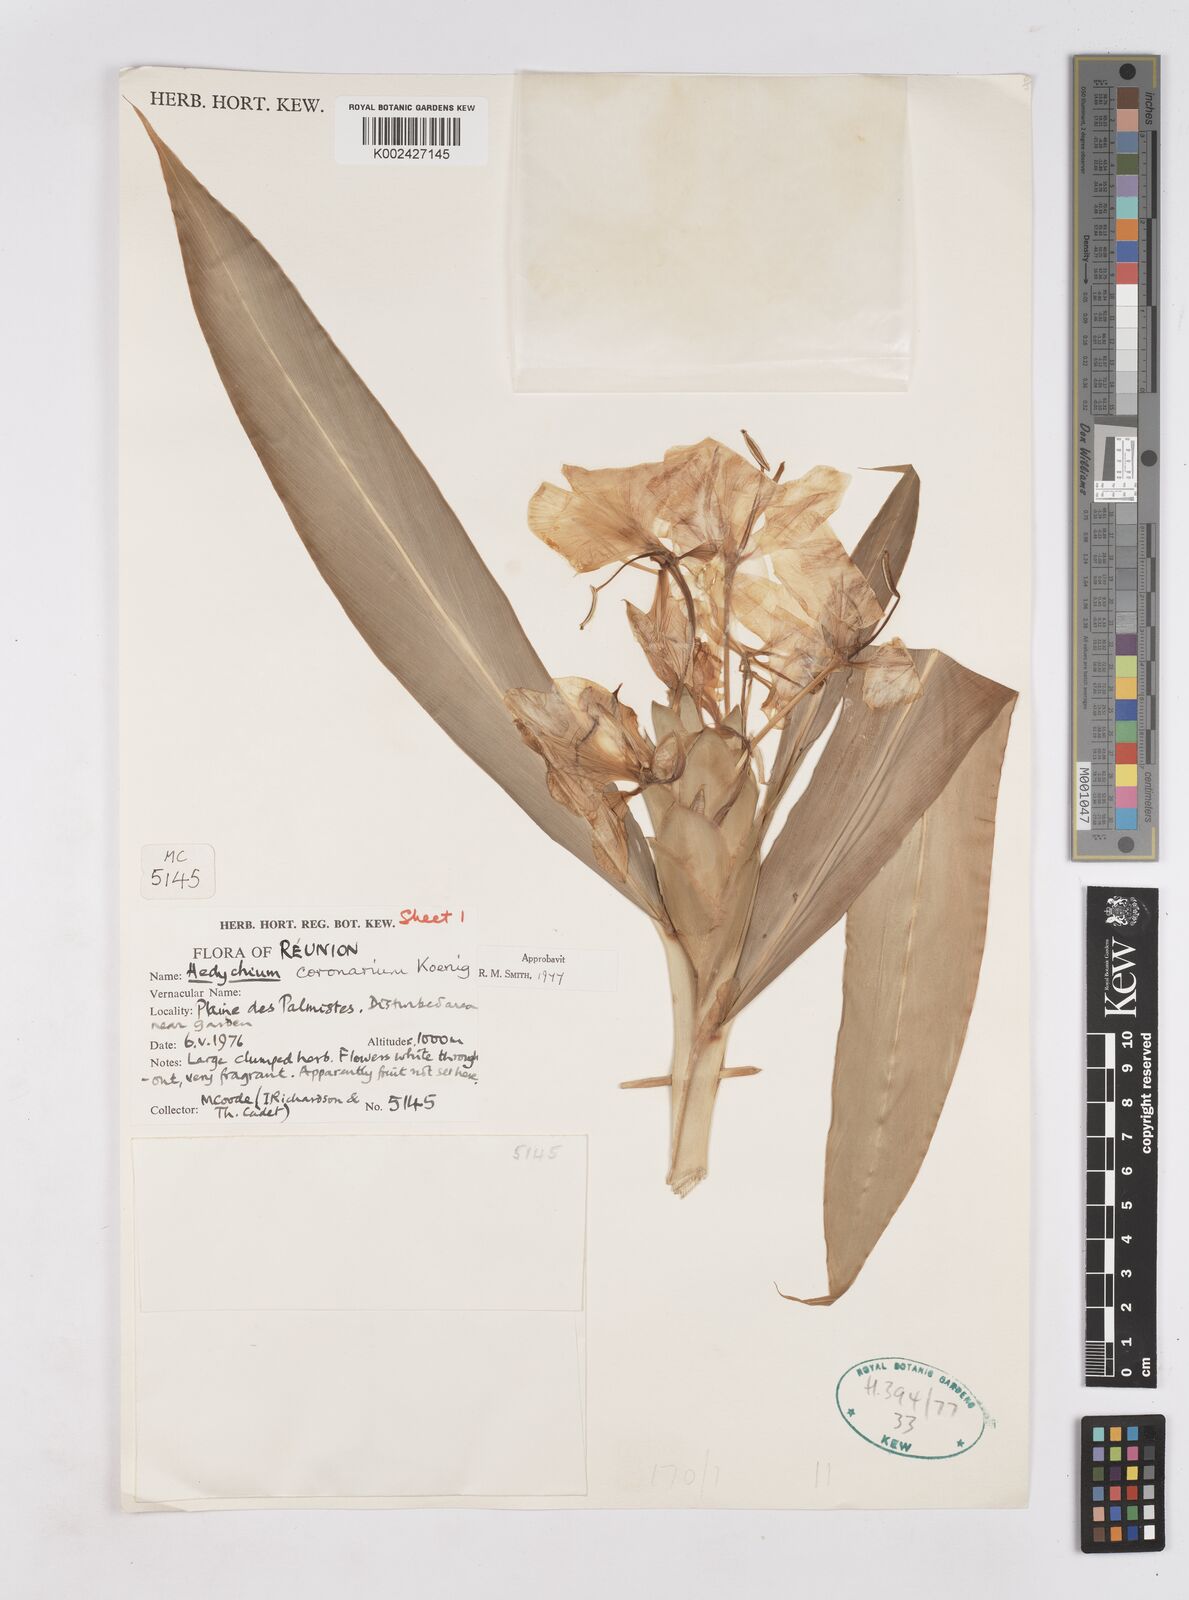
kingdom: Plantae
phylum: Tracheophyta
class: Liliopsida
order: Zingiberales
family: Zingiberaceae
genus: Hedychium
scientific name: Hedychium coronarium
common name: White garland-lily
